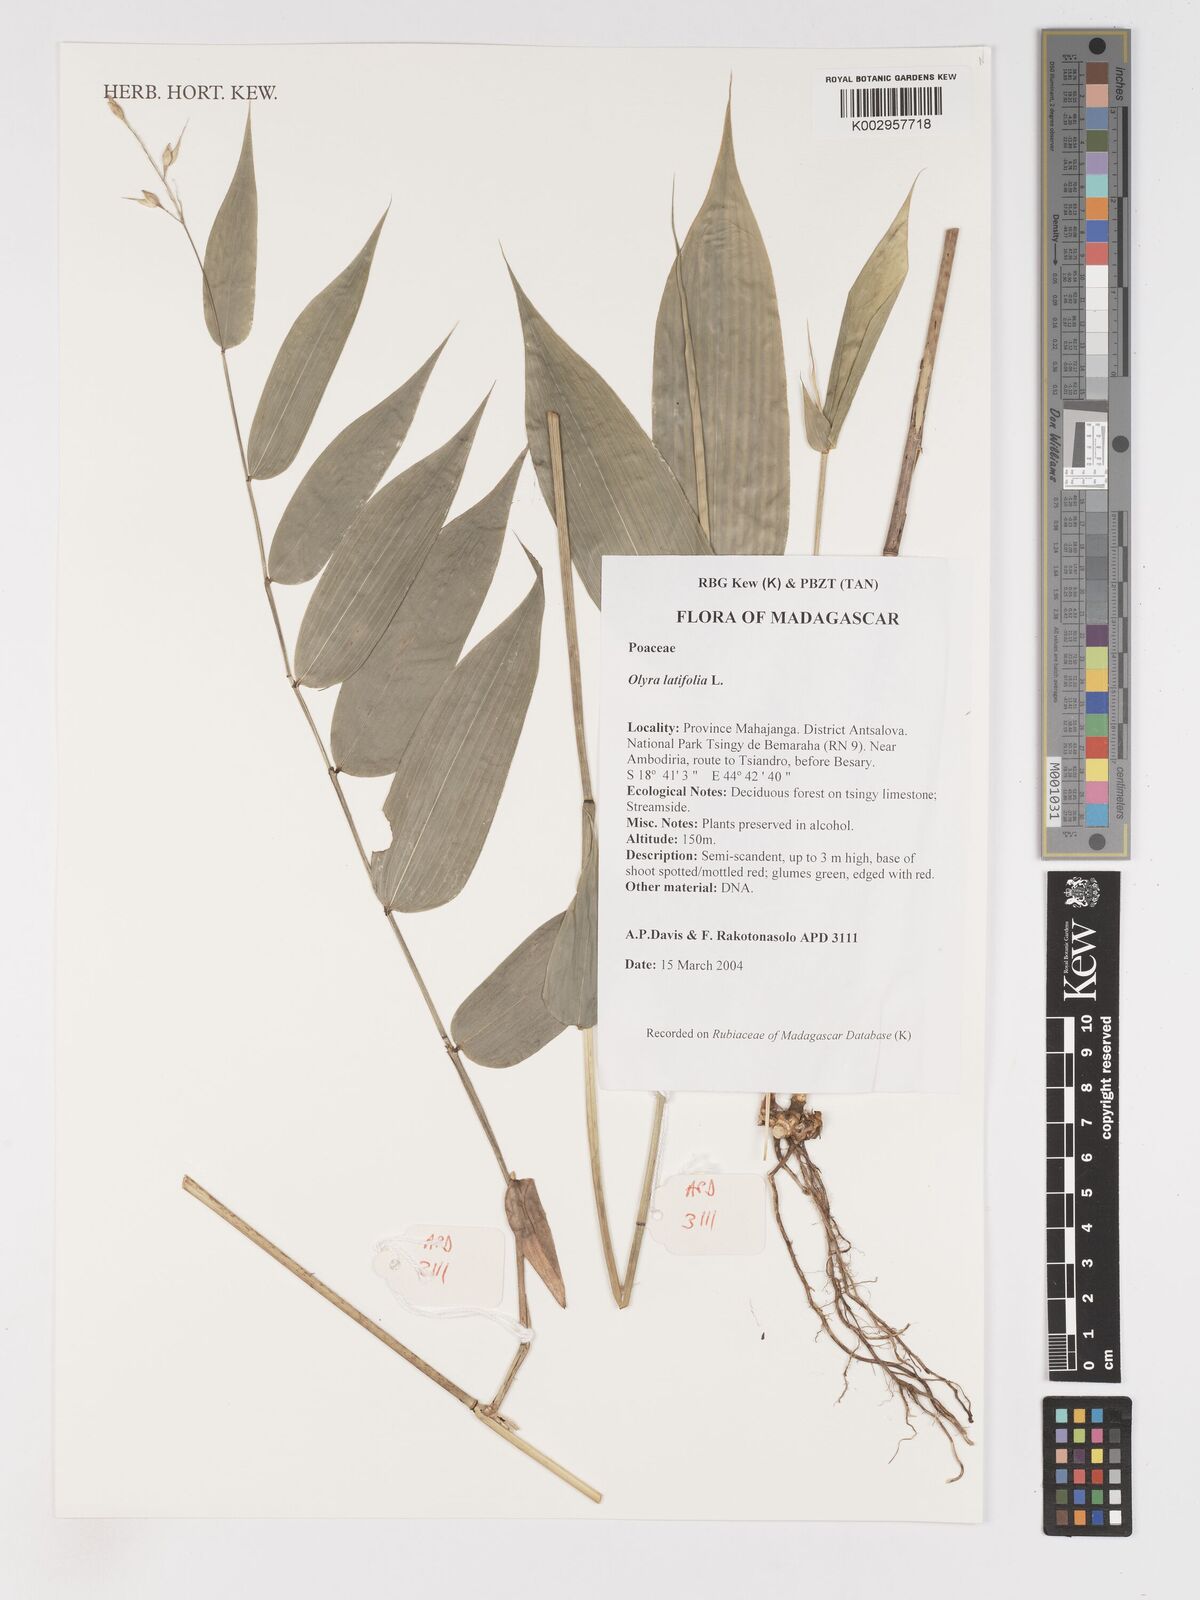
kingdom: Plantae
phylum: Tracheophyta
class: Liliopsida
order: Poales
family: Poaceae
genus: Olyra
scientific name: Olyra latifolia
